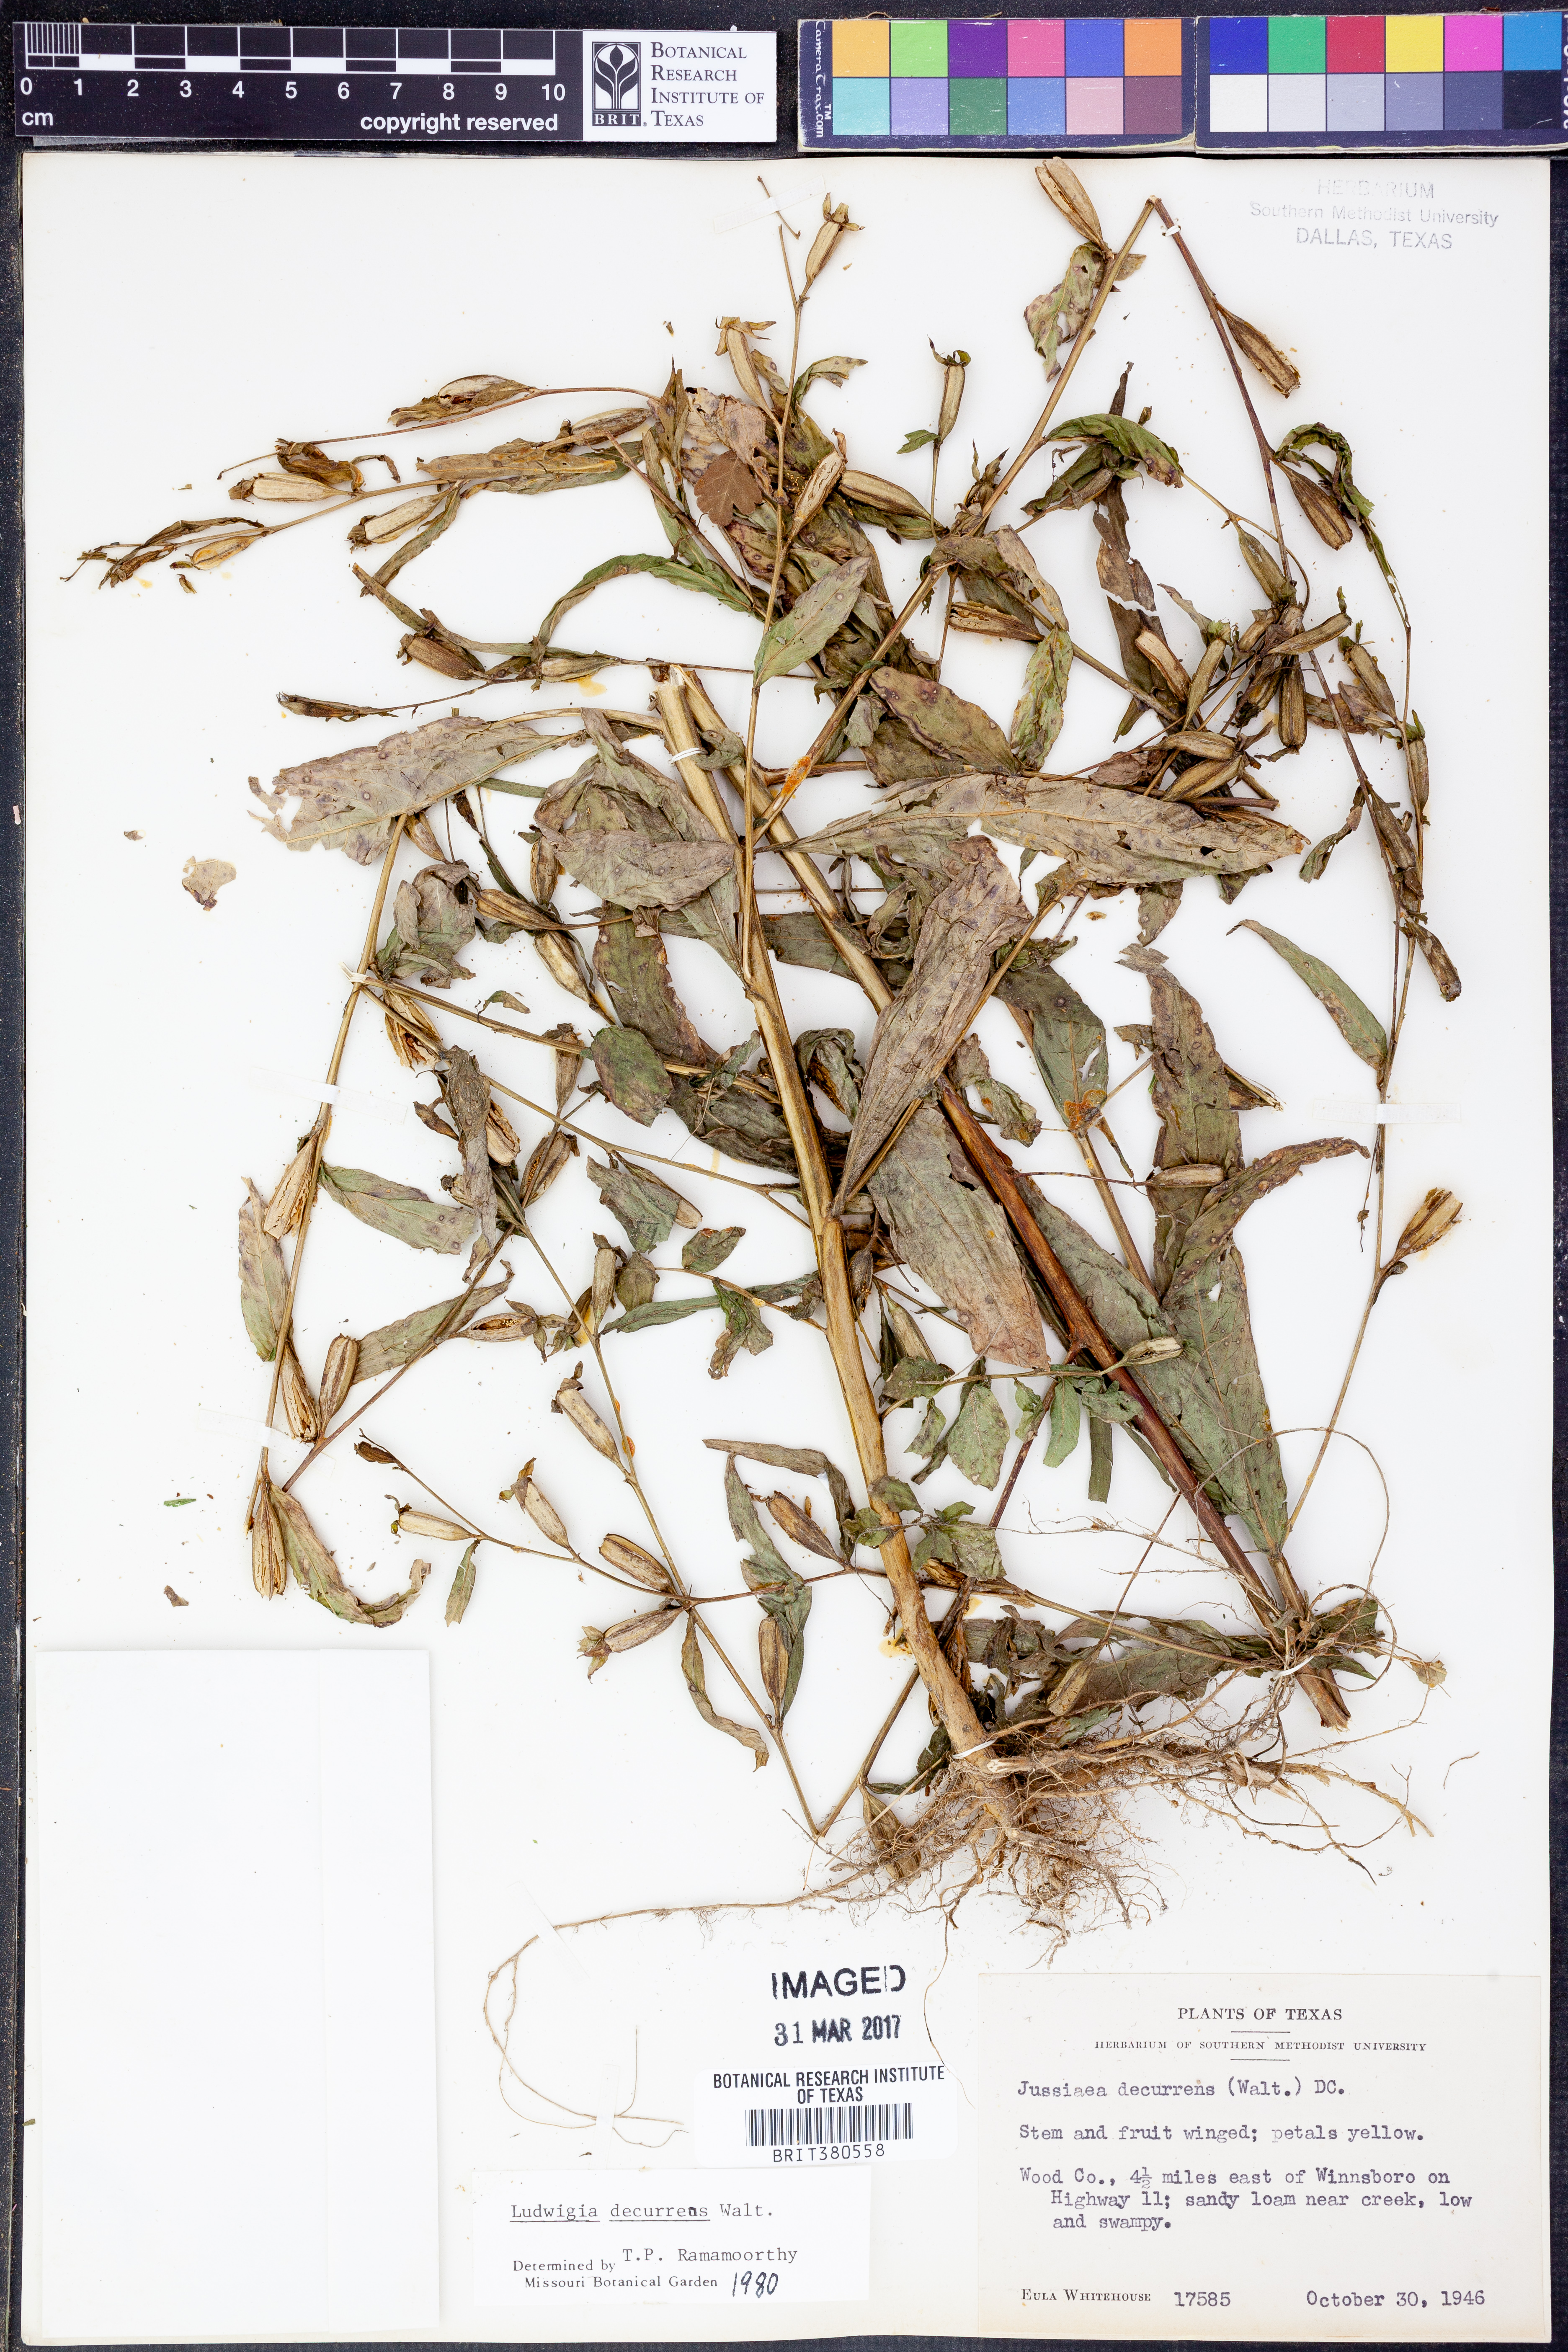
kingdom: Plantae
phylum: Tracheophyta
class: Magnoliopsida
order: Myrtales
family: Onagraceae
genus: Ludwigia
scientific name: Ludwigia decurrens
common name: Winged water-primrose
